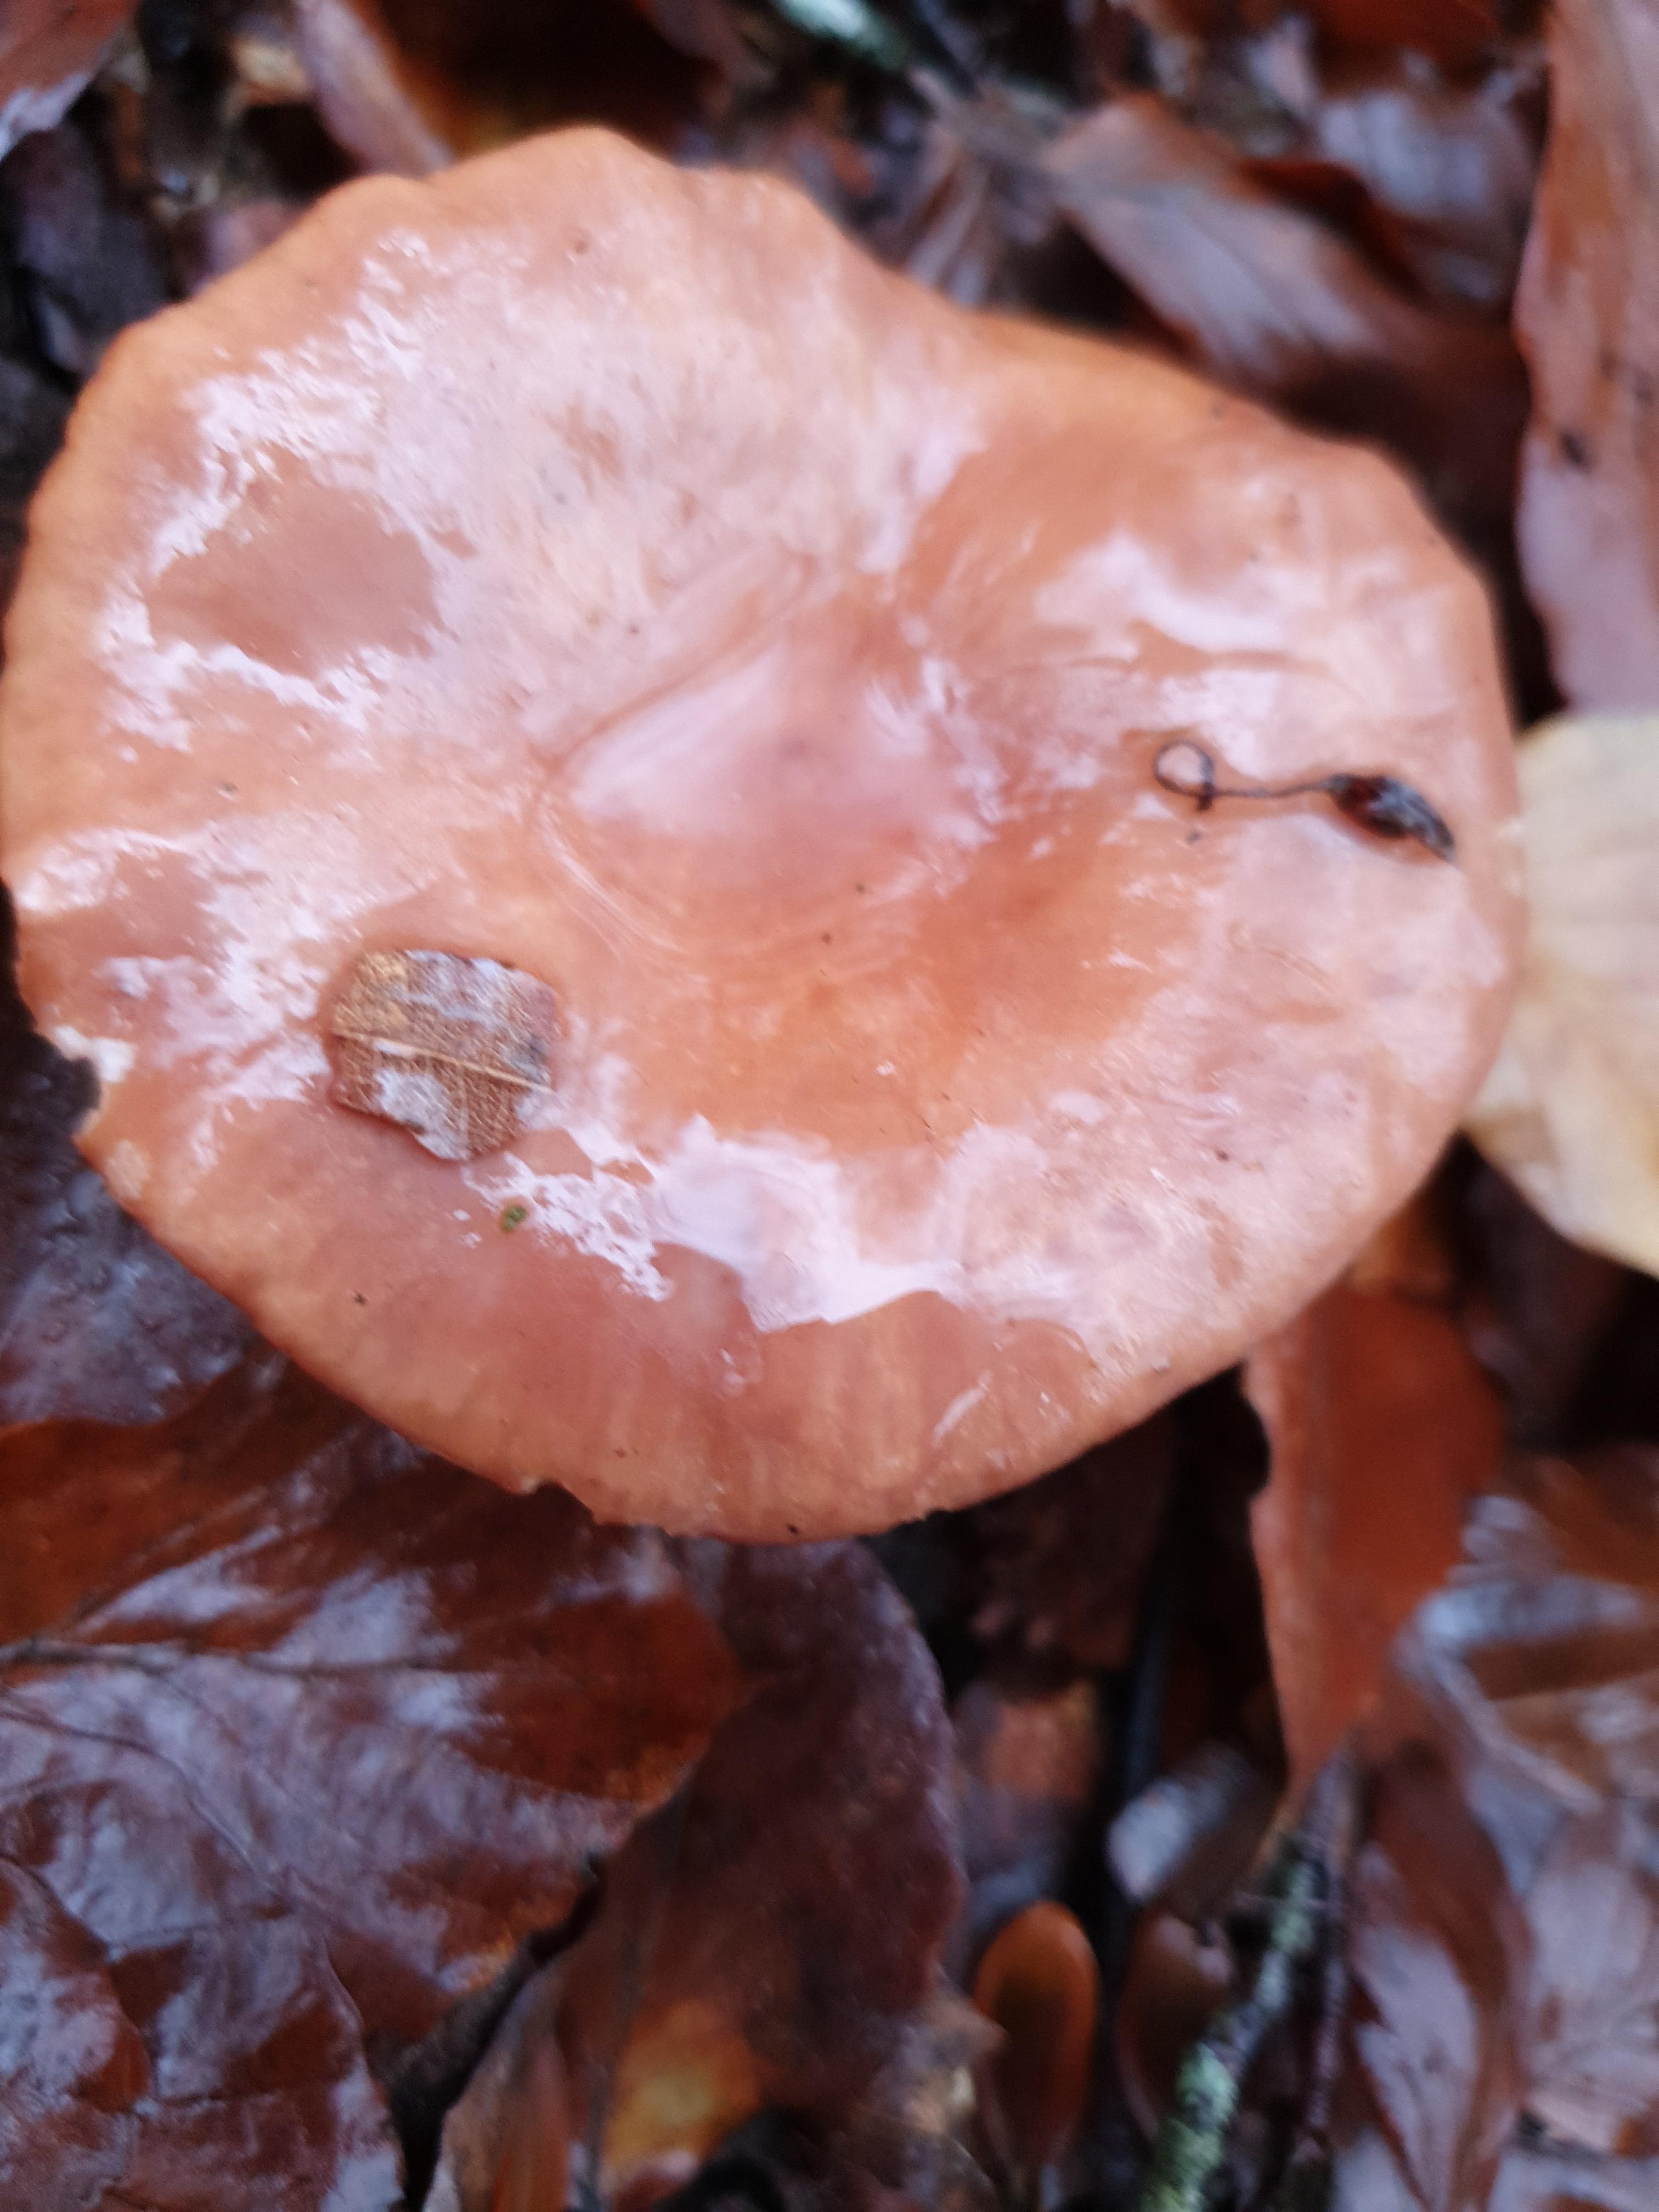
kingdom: Fungi
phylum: Basidiomycota
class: Agaricomycetes
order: Russulales
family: Russulaceae
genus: Lactarius
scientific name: Lactarius
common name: mælkehat
